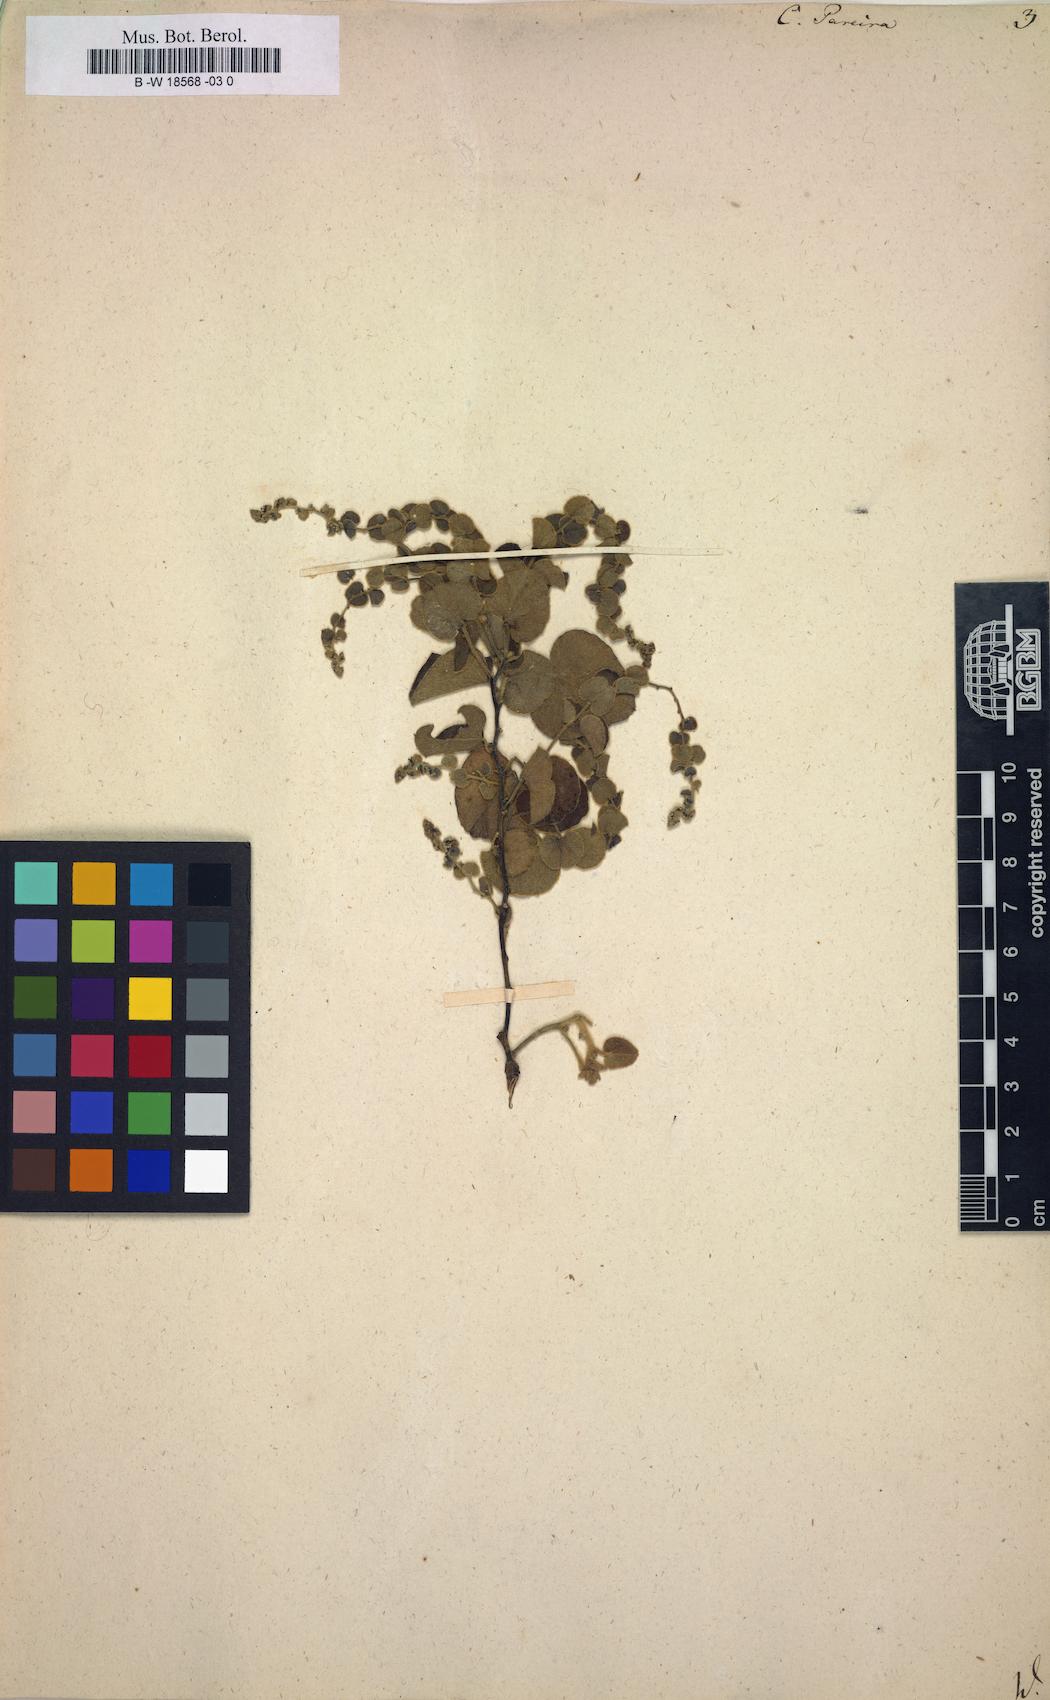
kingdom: Plantae
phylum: Tracheophyta
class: Magnoliopsida
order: Ranunculales
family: Menispermaceae
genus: Cissampelos
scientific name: Cissampelos pareira
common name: Velvetleaf
